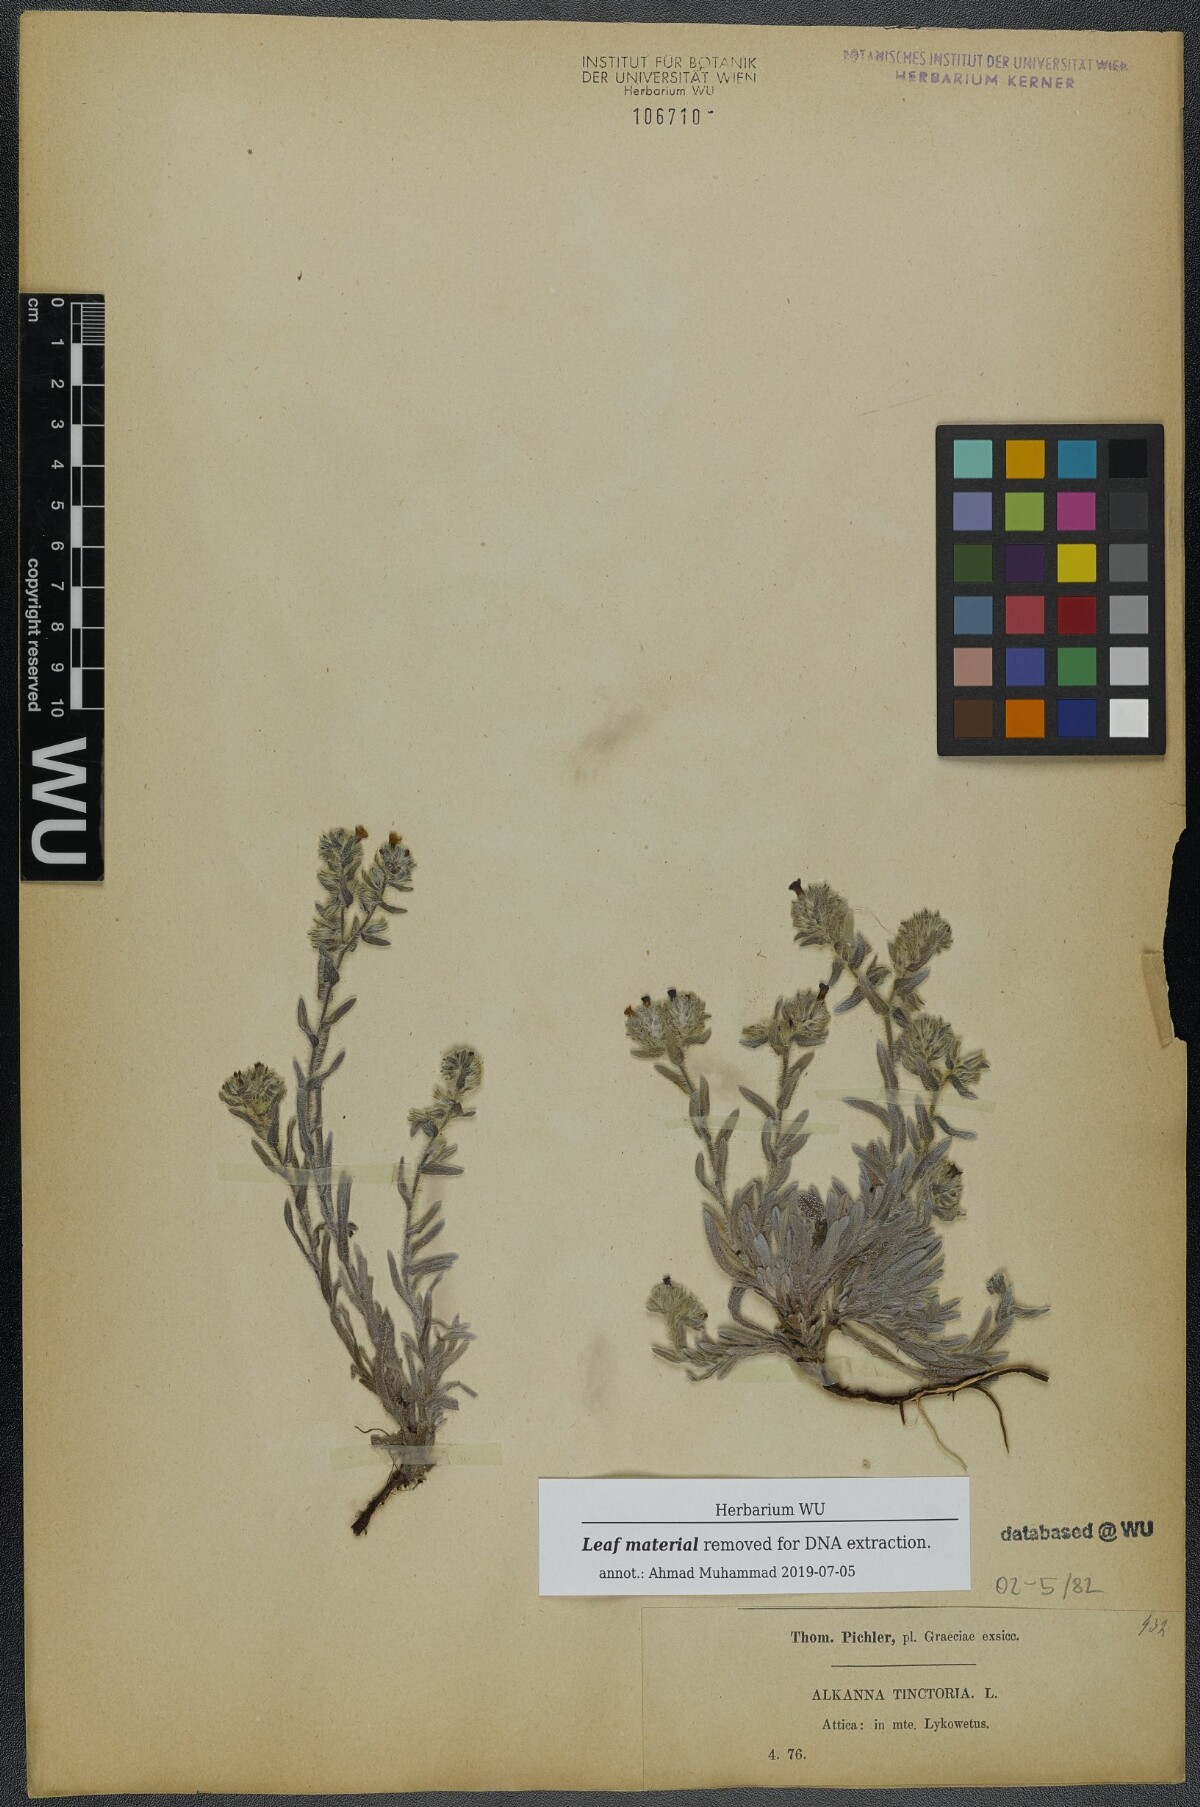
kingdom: Plantae
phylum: Tracheophyta
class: Magnoliopsida
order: Boraginales
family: Boraginaceae
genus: Alkanna
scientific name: Alkanna tinctoria
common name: Dyer's-alkanet
